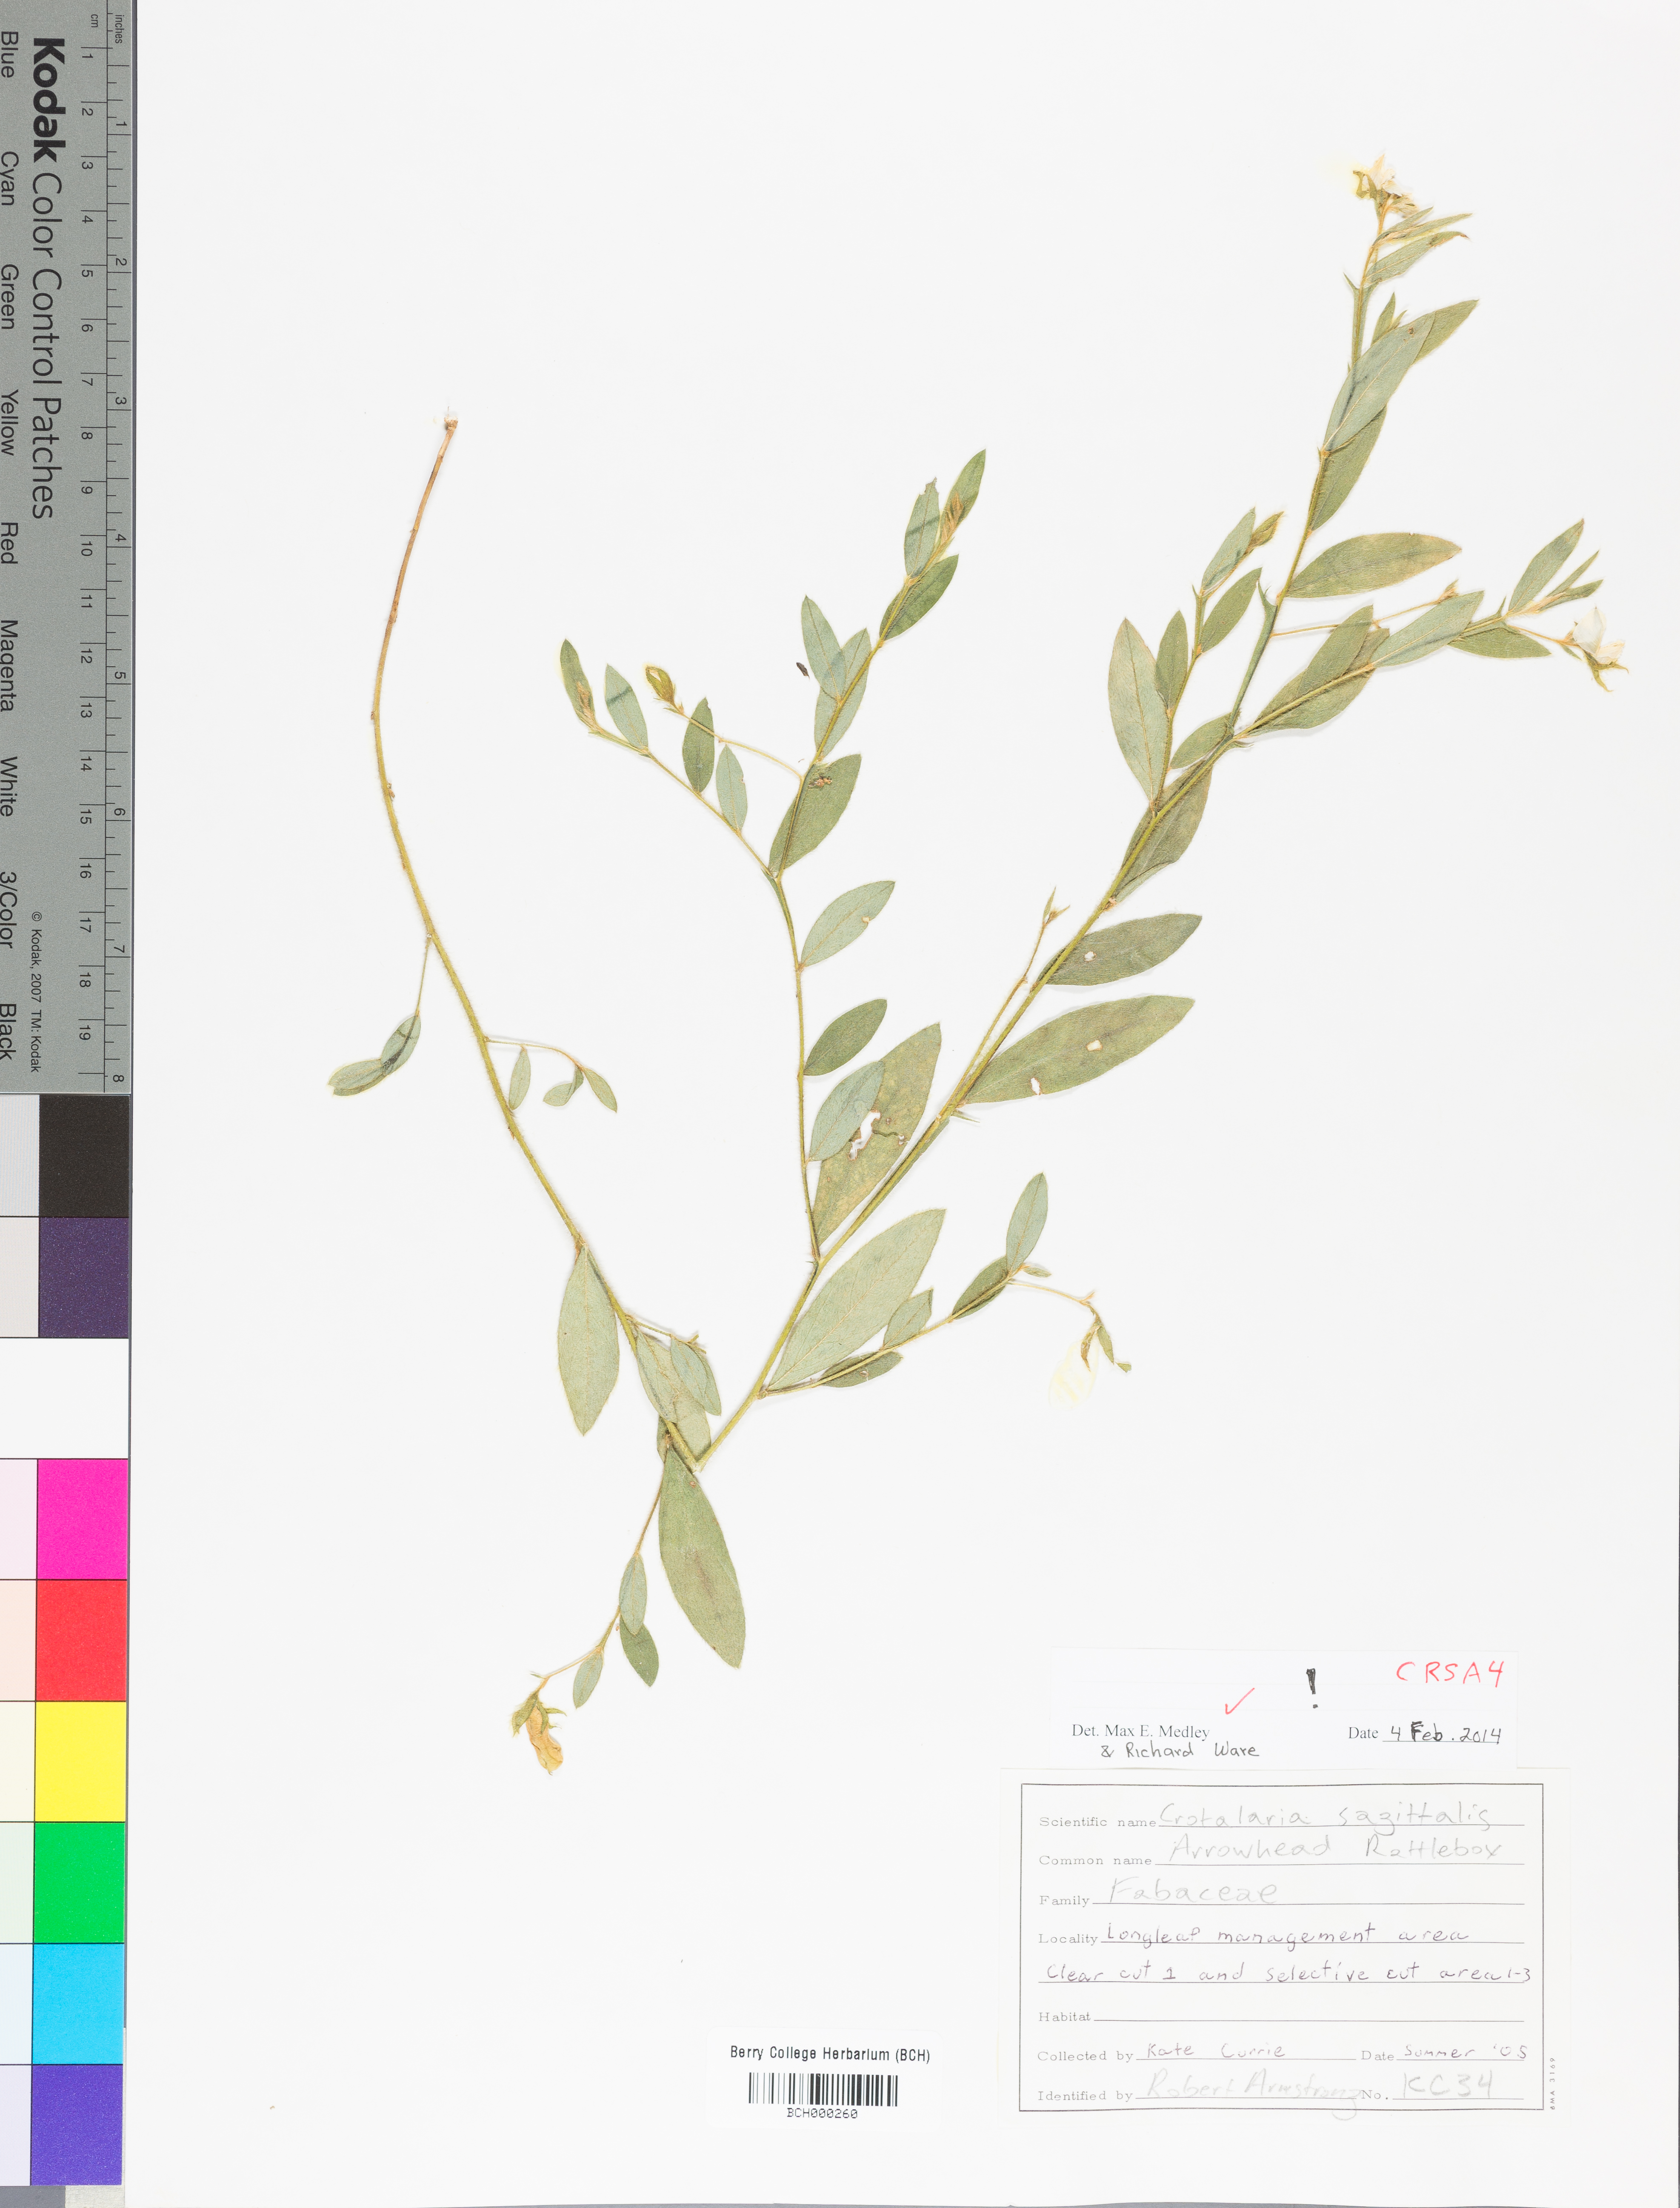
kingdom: Plantae
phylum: Tracheophyta
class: Magnoliopsida
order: Fabales
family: Fabaceae
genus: Crotalaria
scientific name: Crotalaria sagittalis
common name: Arrowhead rattlebox
